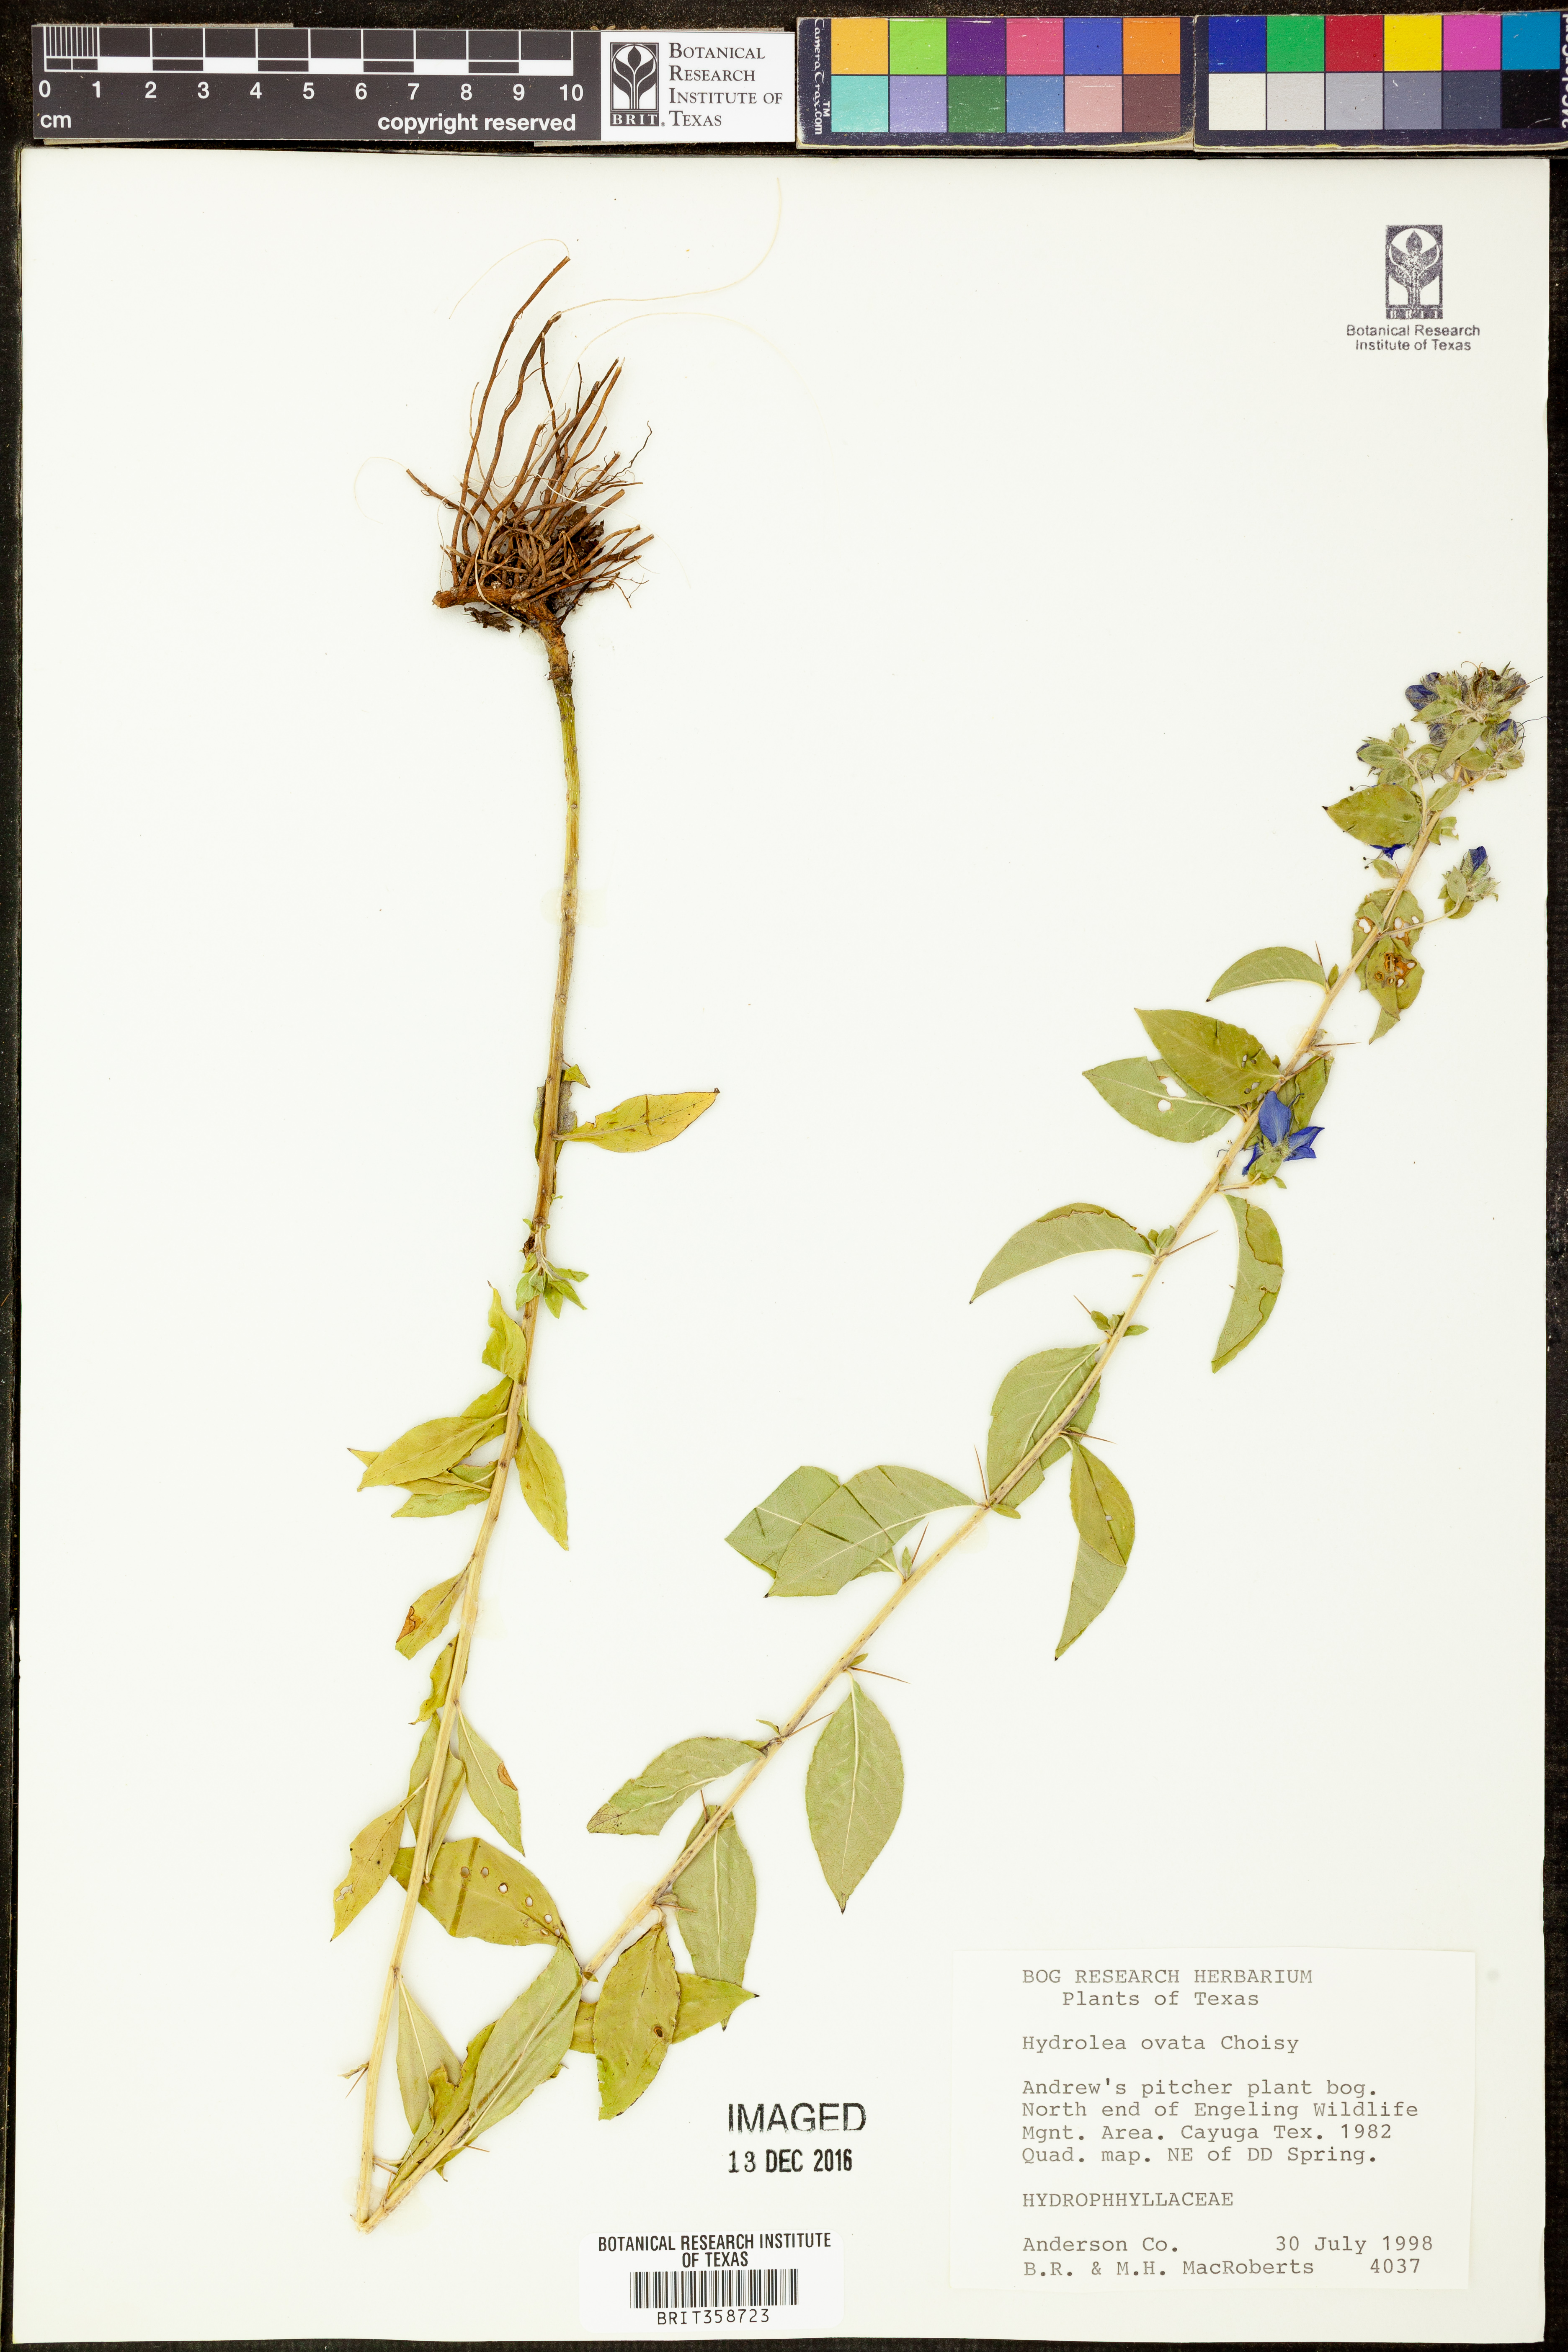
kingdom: Plantae
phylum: Tracheophyta
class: Magnoliopsida
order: Solanales
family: Hydroleaceae
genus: Hydrolea
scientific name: Hydrolea ovata
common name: Ovate false fiddleleaf
